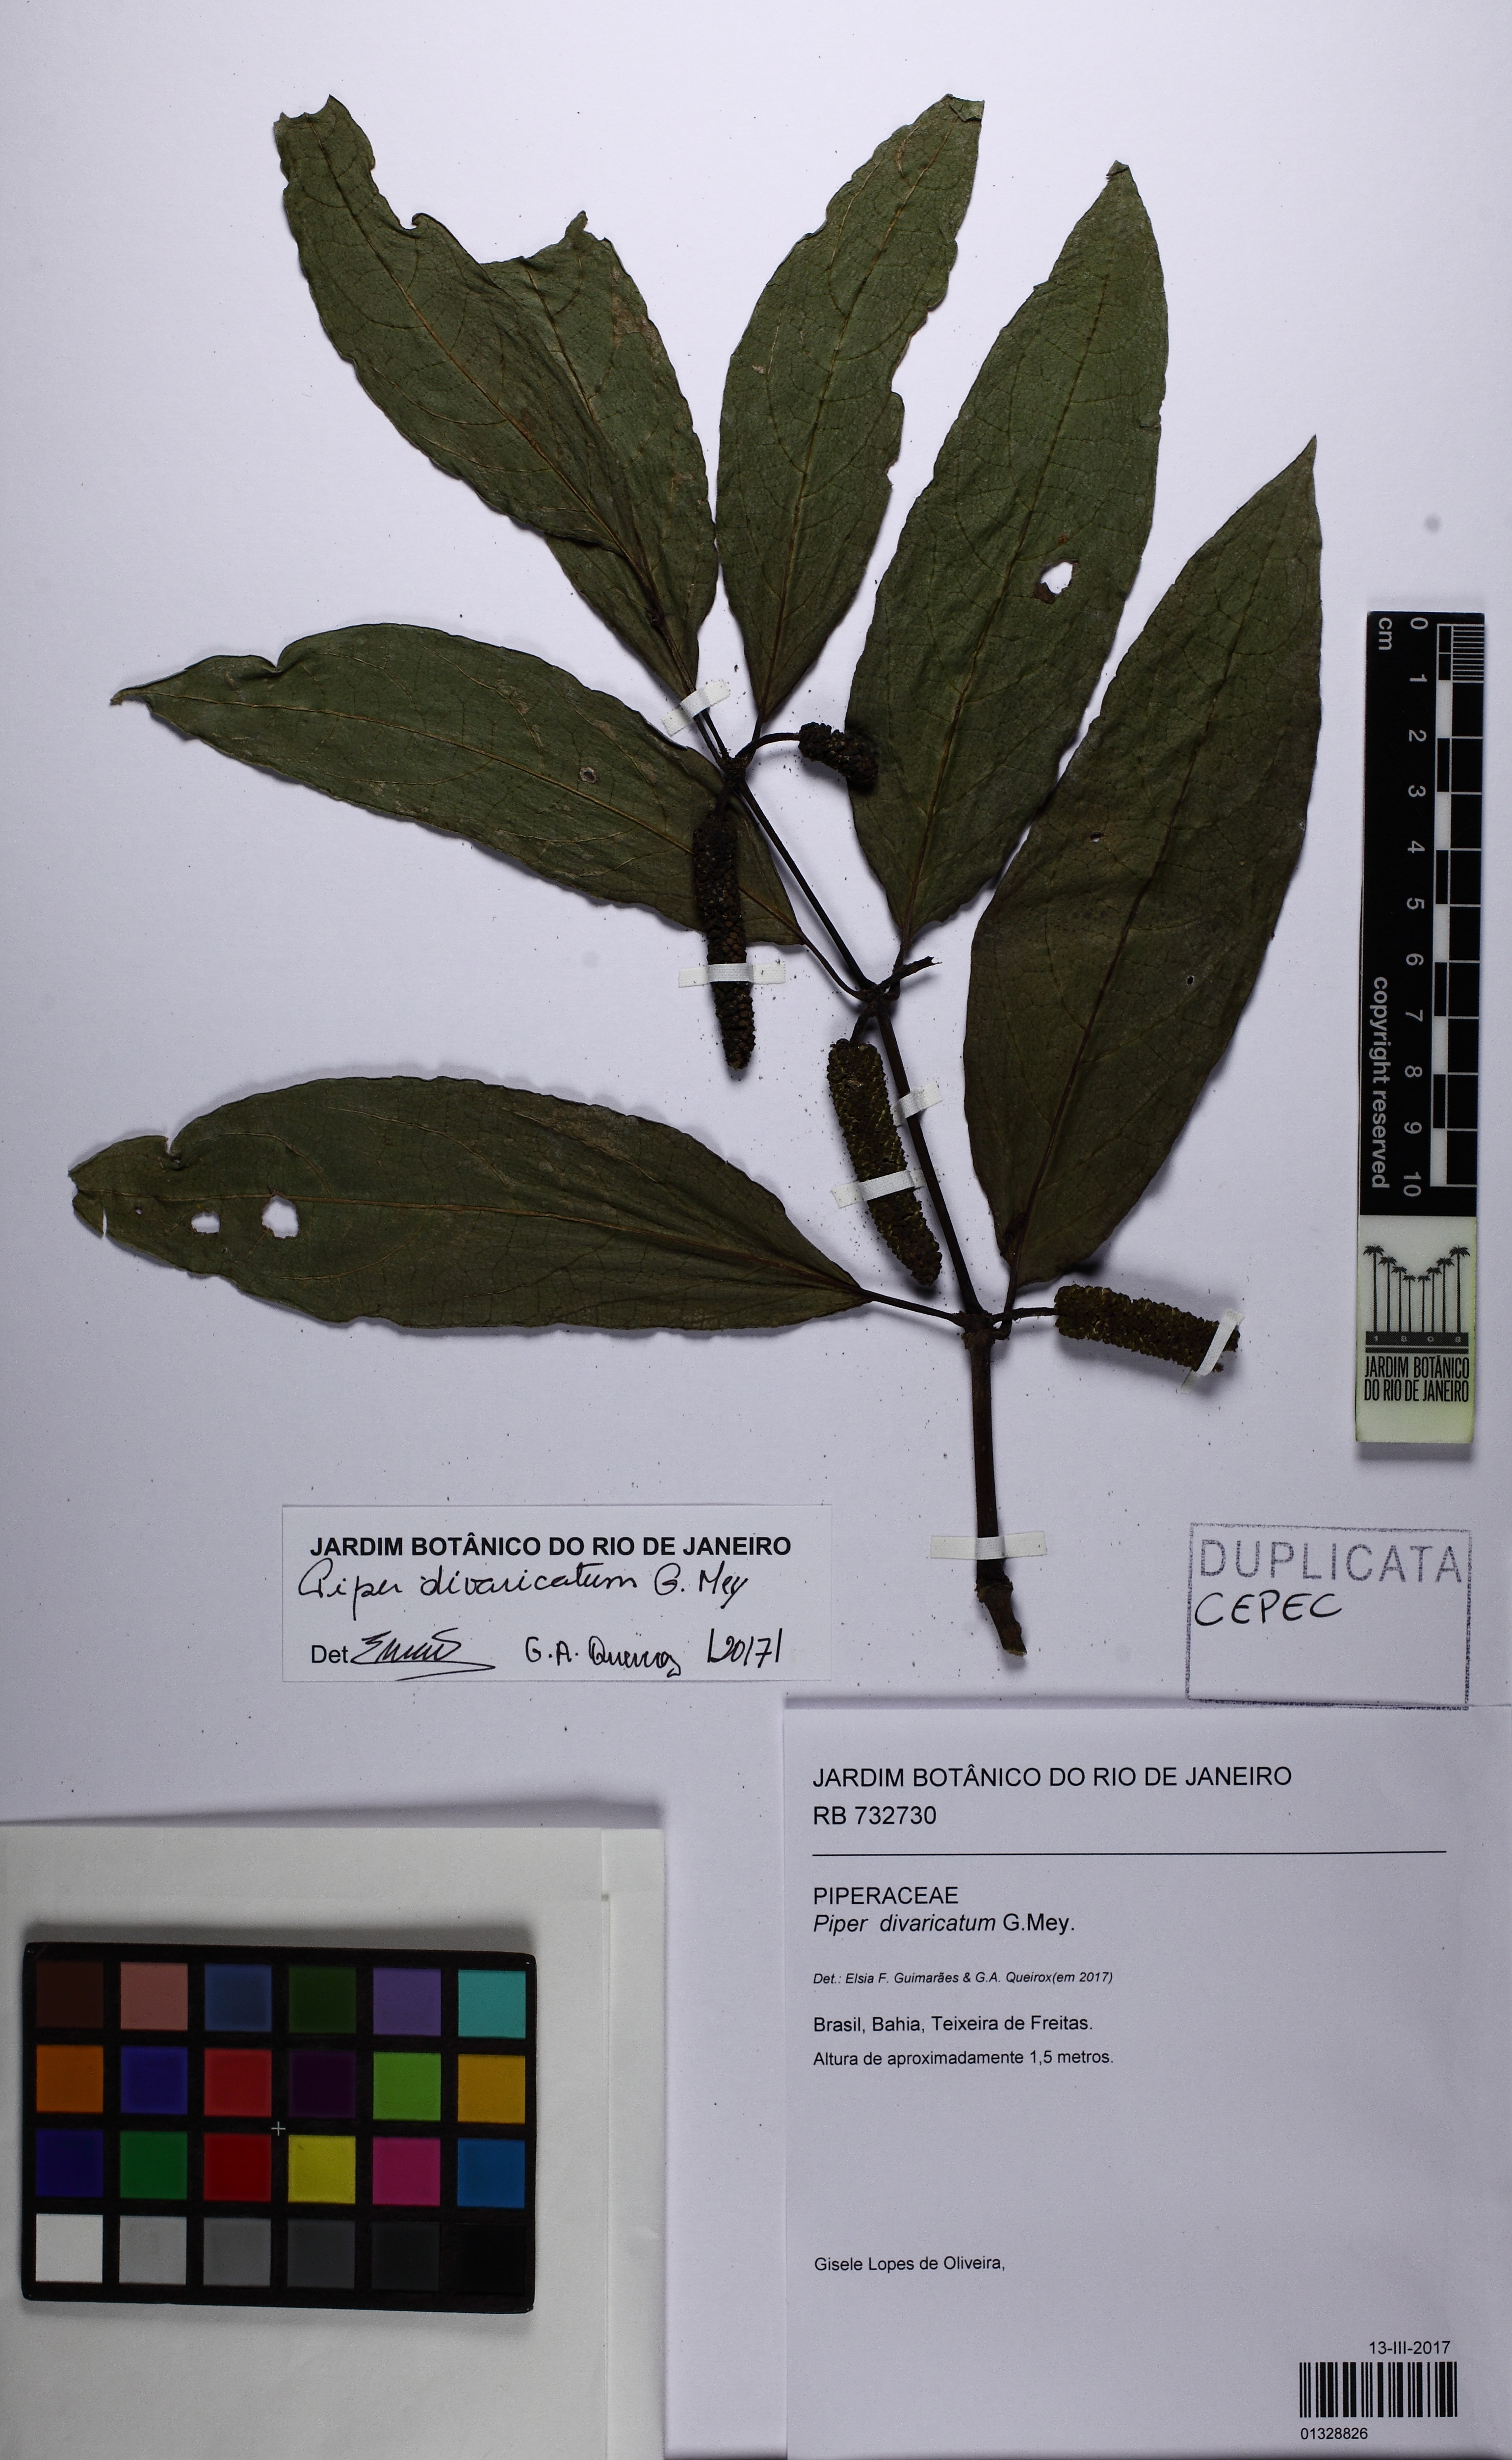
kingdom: Plantae
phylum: Tracheophyta
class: Magnoliopsida
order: Piperales
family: Piperaceae
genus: Piper
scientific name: Piper divaricatum
